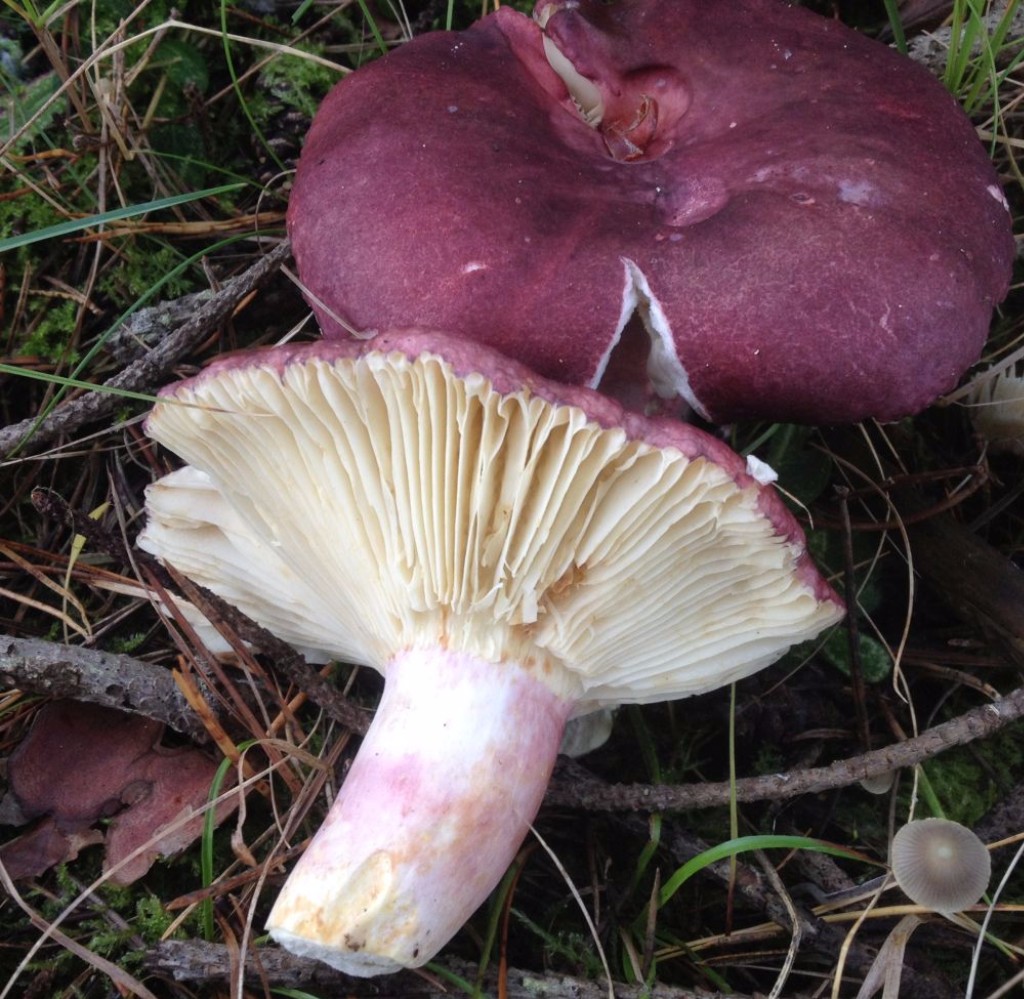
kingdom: Fungi
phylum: Basidiomycota
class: Agaricomycetes
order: Russulales
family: Russulaceae
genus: Russula
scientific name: Russula sardonia
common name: citronbladet skørhat
